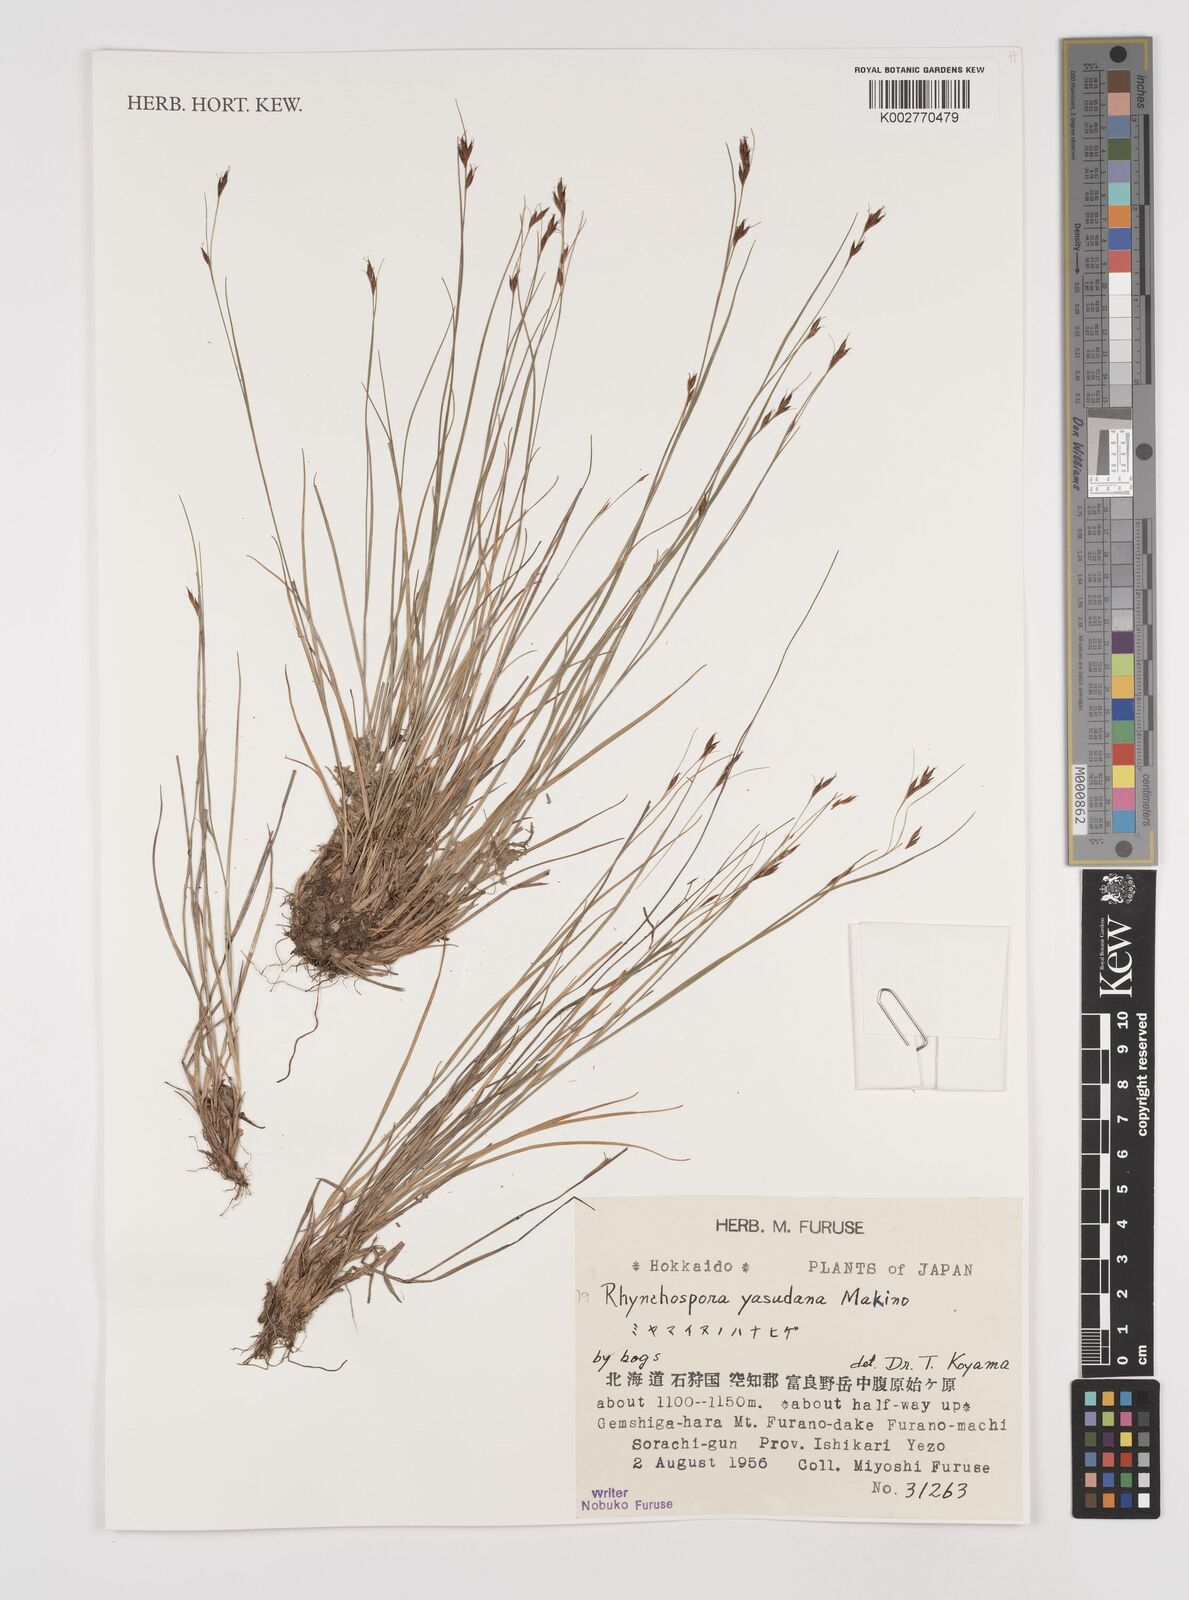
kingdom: Plantae
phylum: Tracheophyta
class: Liliopsida
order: Poales
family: Cyperaceae
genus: Rhynchospora
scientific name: Rhynchospora fujiiana
